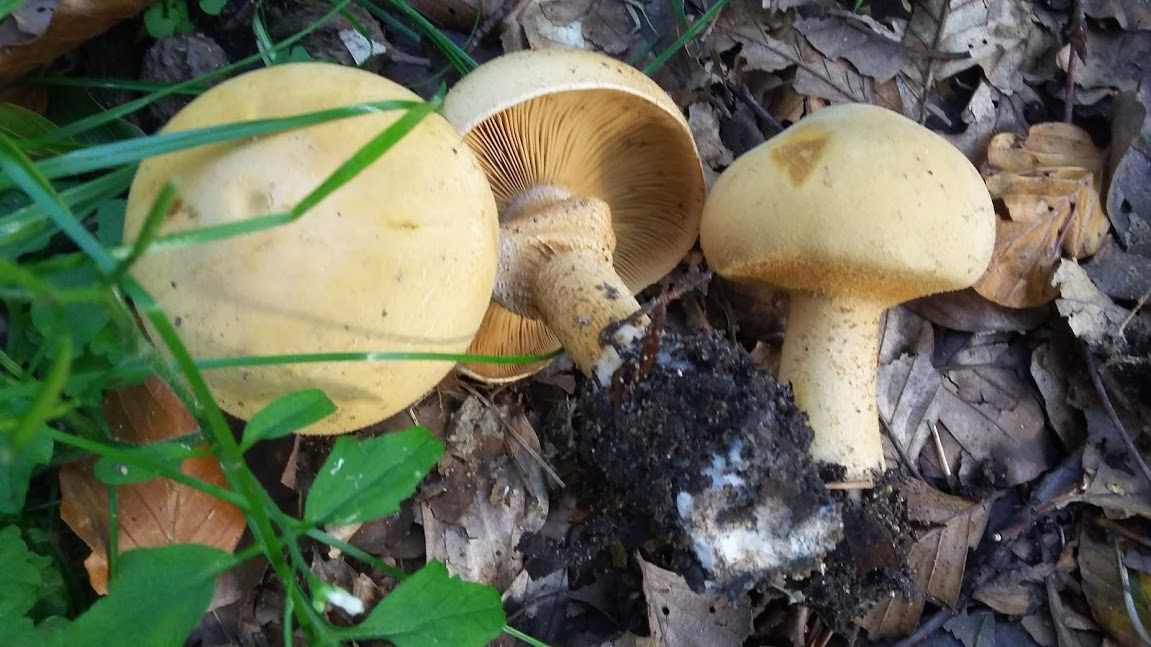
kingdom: Fungi
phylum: Basidiomycota
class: Agaricomycetes
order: Agaricales
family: Tricholomataceae
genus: Phaeolepiota
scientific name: Phaeolepiota aurea
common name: gyldenhat
